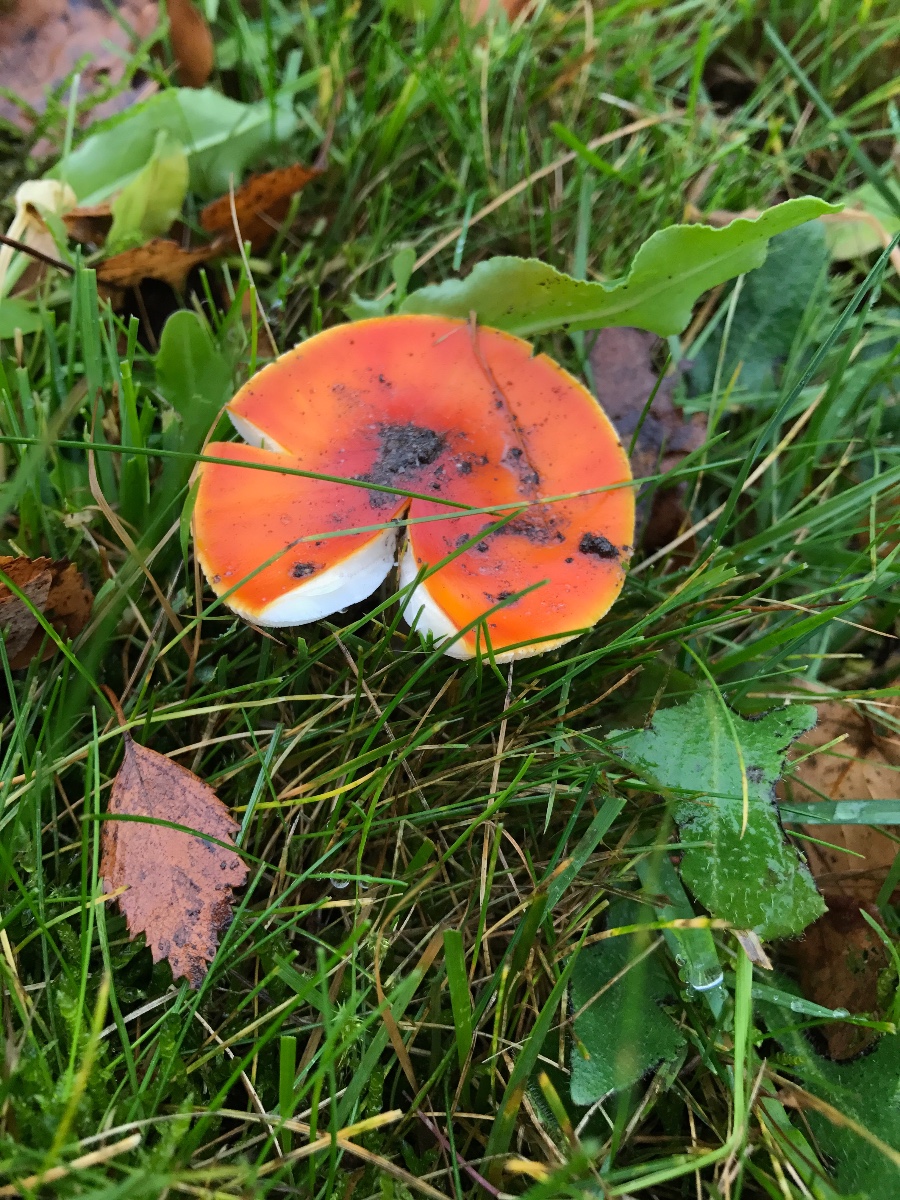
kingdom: Fungi
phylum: Basidiomycota
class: Agaricomycetes
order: Agaricales
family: Amanitaceae
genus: Amanita
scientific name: Amanita muscaria
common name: rød fluesvamp
